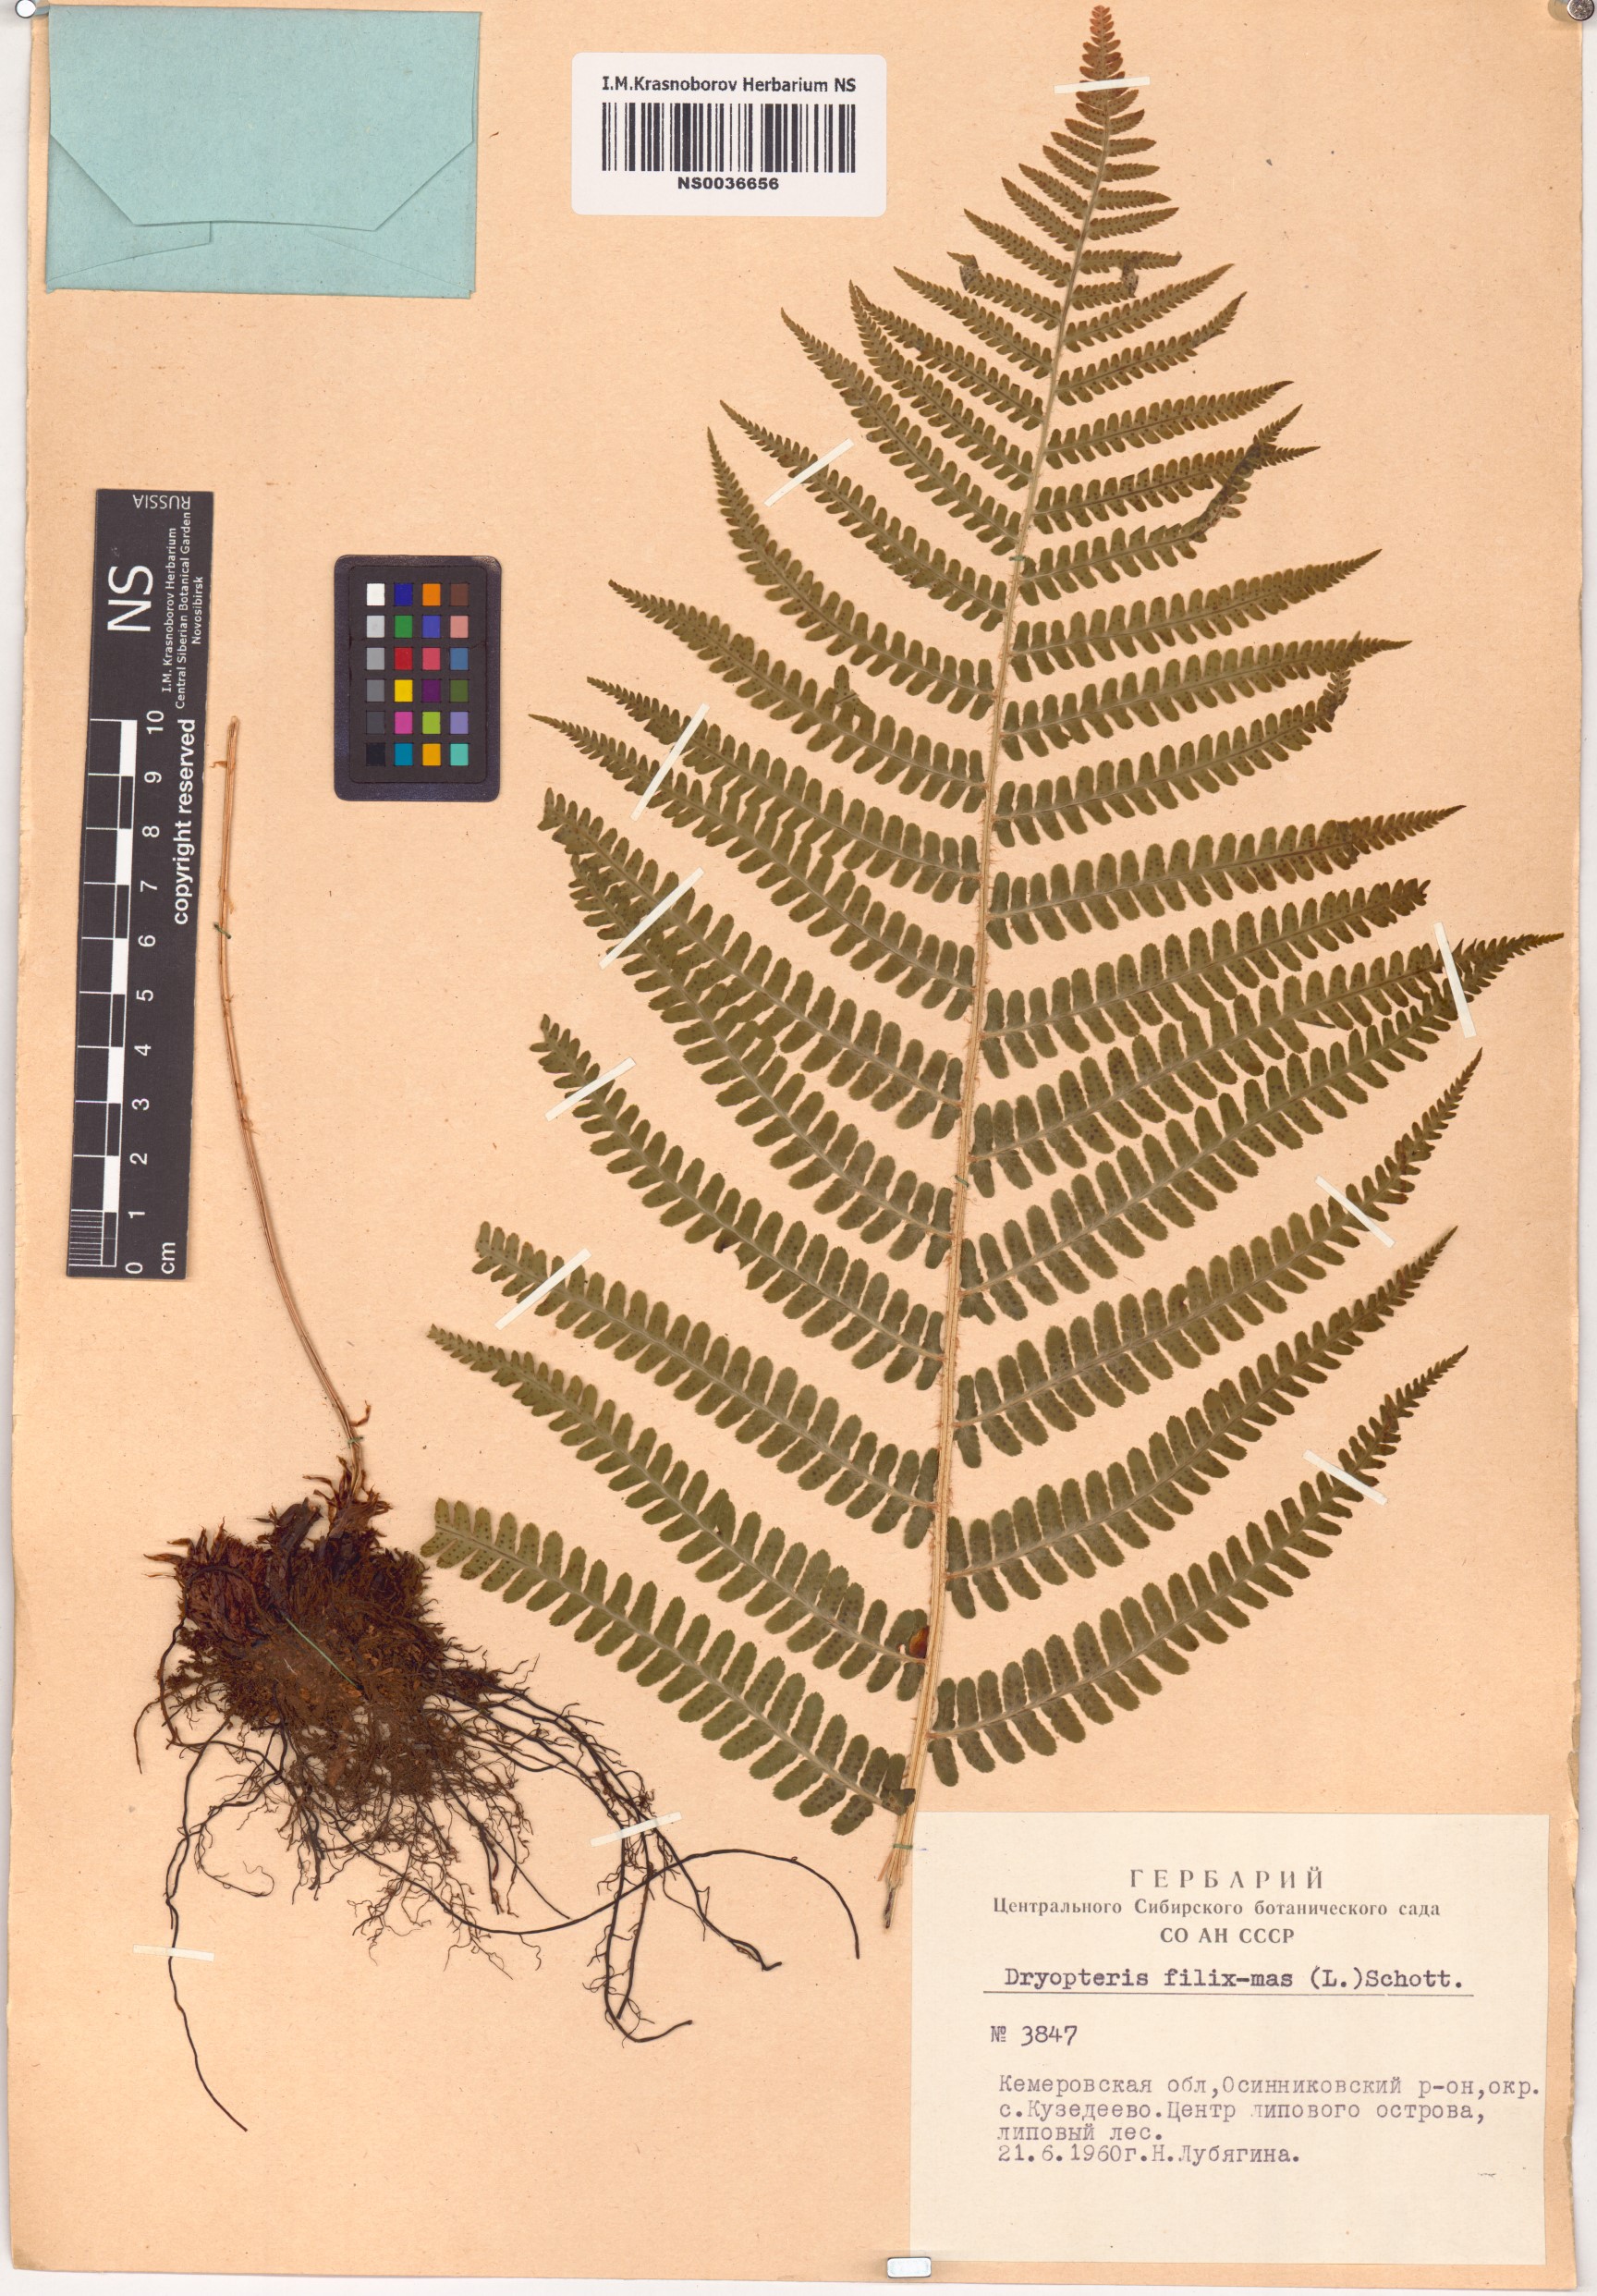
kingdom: Plantae
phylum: Tracheophyta
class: Polypodiopsida
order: Polypodiales
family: Dryopteridaceae
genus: Dryopteris
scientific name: Dryopteris filix-mas
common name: Male fern
